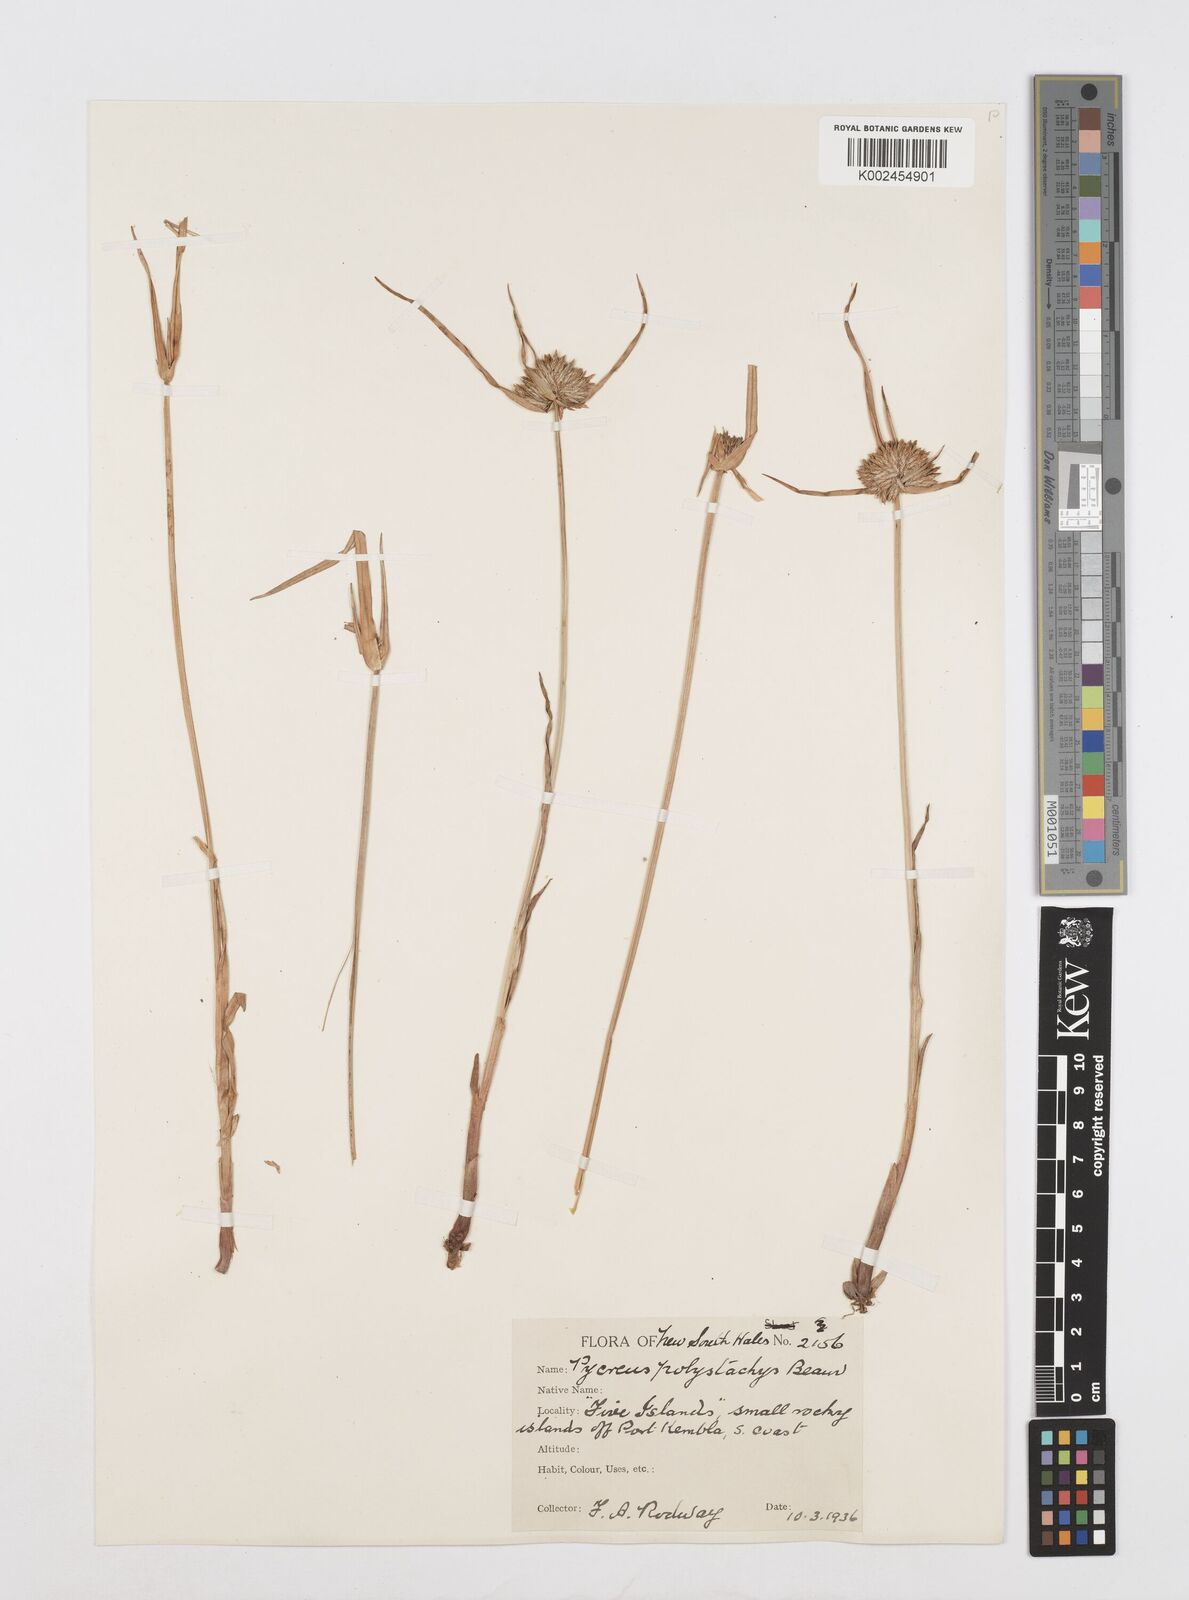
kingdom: Plantae
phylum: Tracheophyta
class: Liliopsida
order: Poales
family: Cyperaceae
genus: Cyperus
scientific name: Cyperus polystachyos
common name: Bunchy flat sedge
